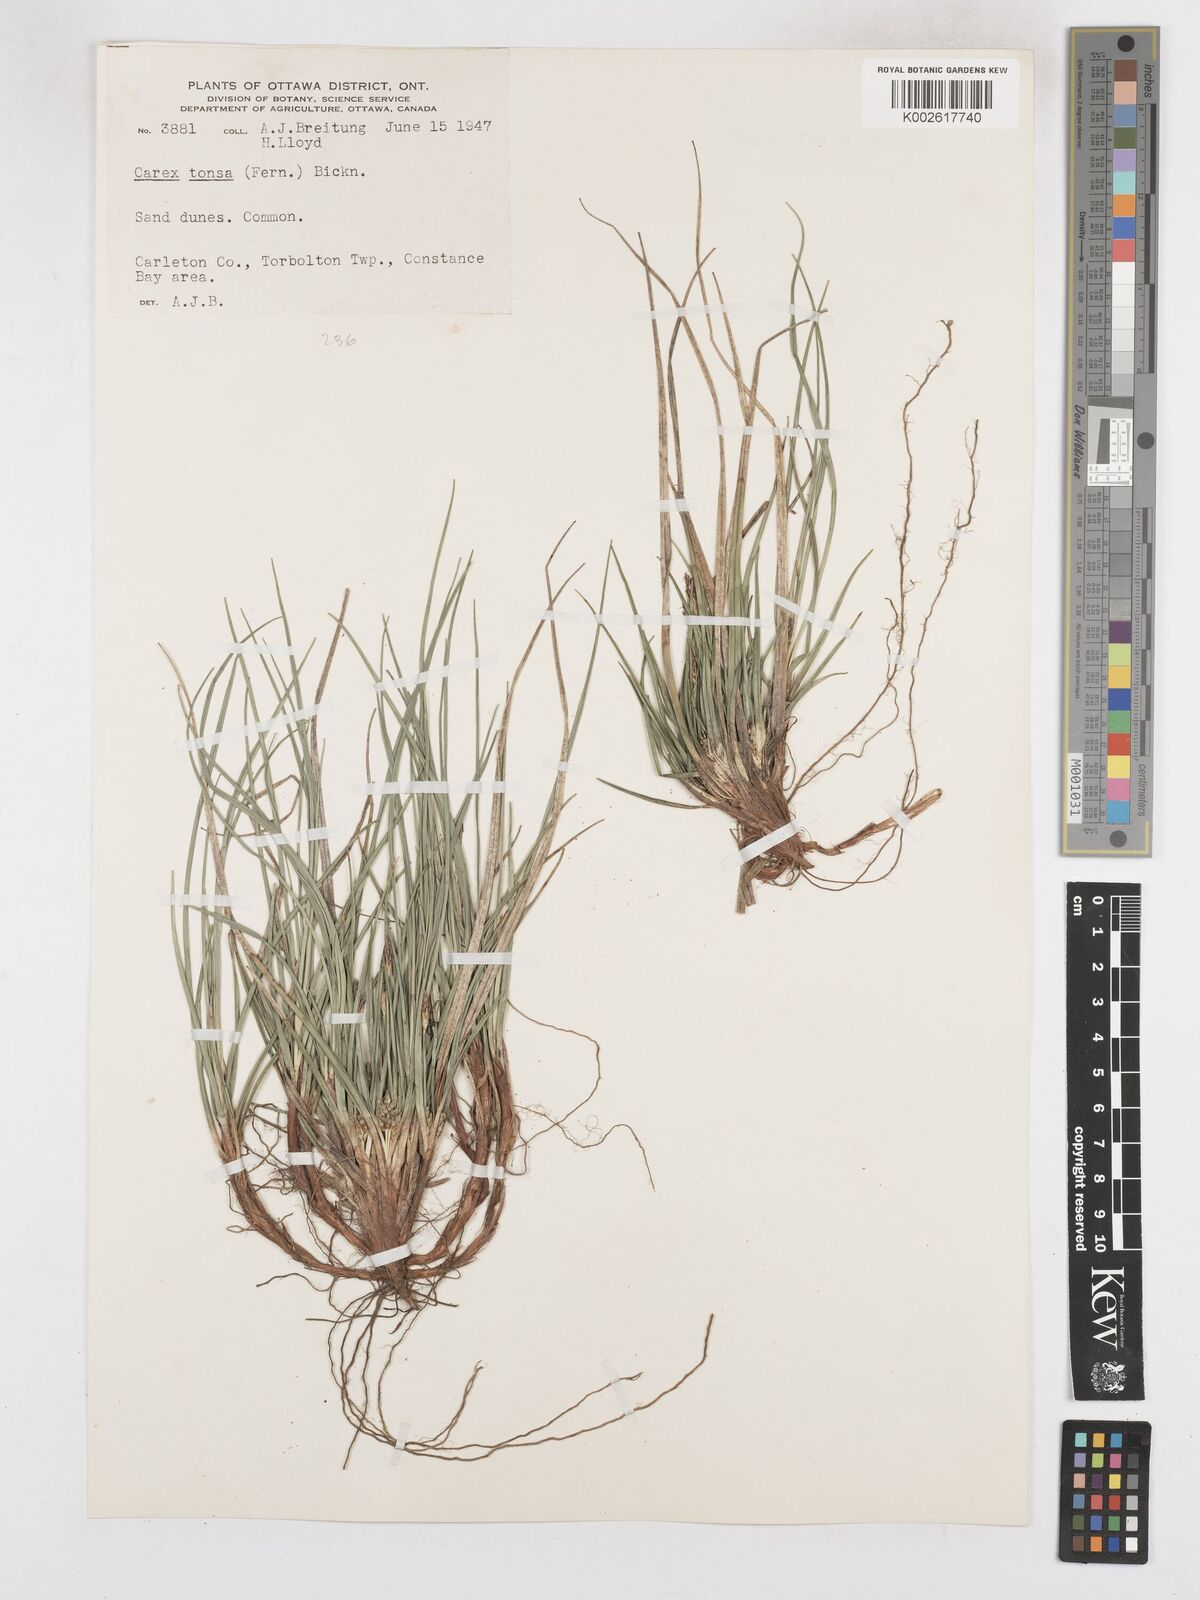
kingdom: Plantae
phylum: Tracheophyta
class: Liliopsida
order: Poales
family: Cyperaceae
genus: Carex
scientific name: Carex tonsa
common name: Bald sedge
